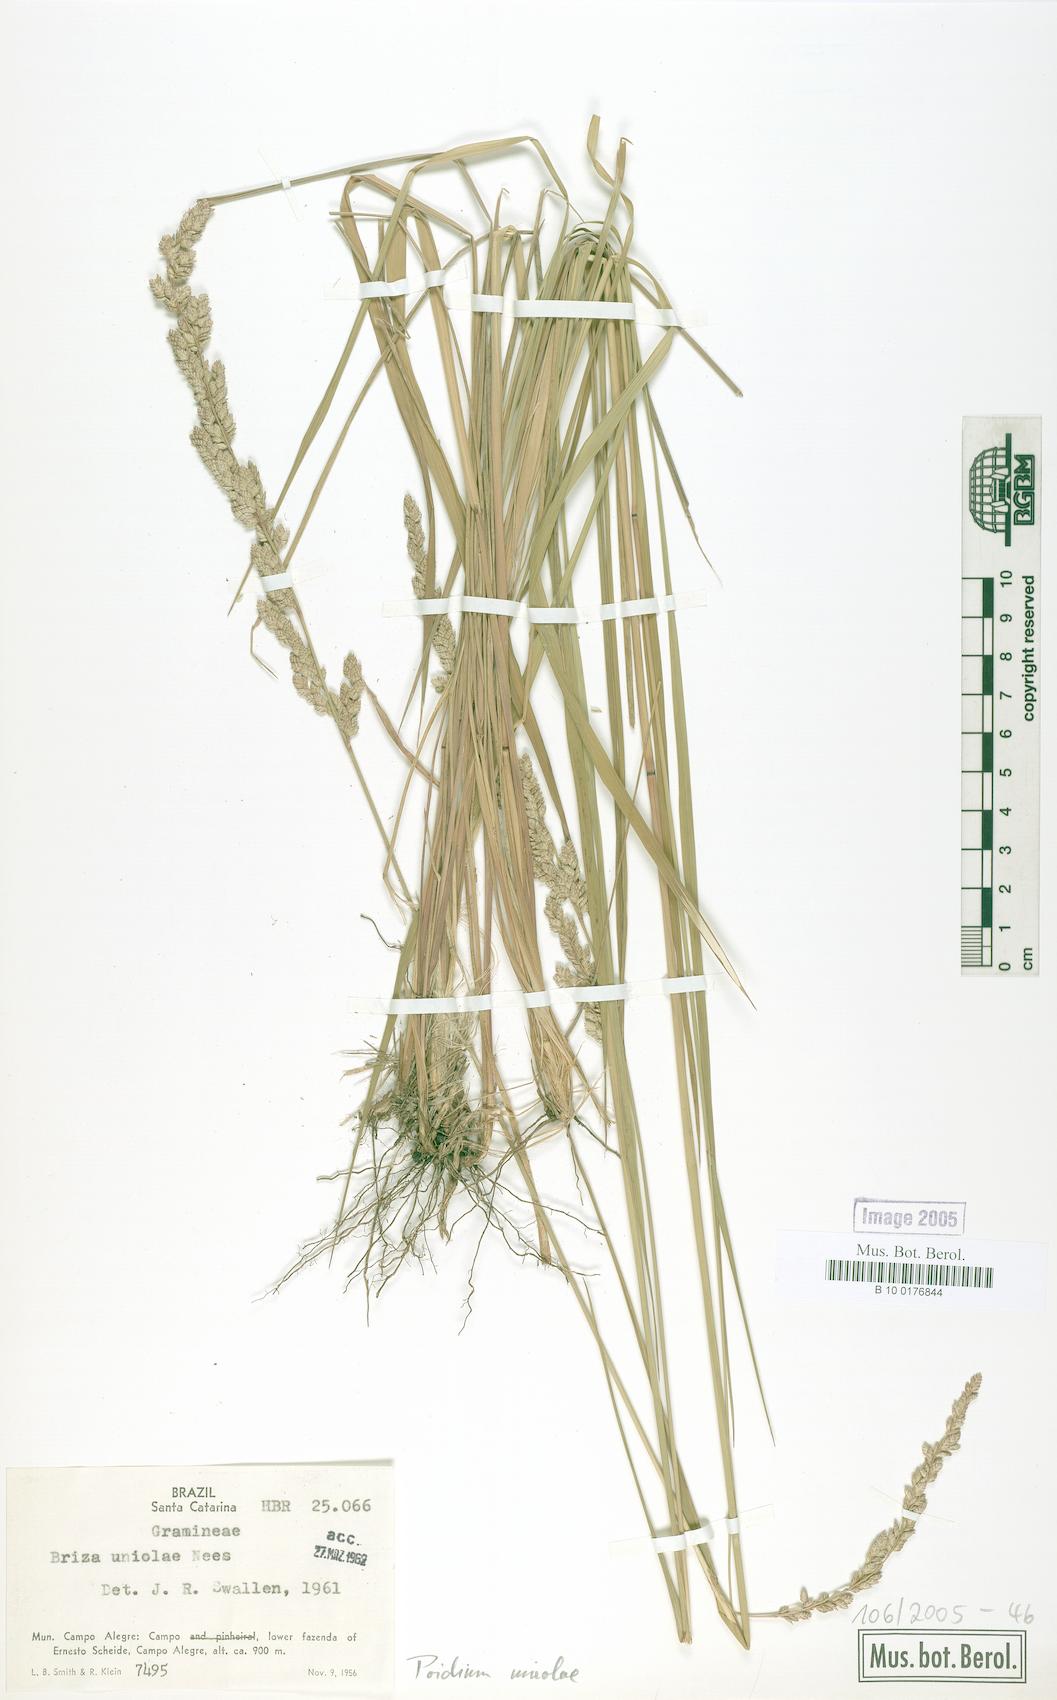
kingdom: Plantae
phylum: Tracheophyta
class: Liliopsida
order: Poales
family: Poaceae
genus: Poidium
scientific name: Poidium uniolae
